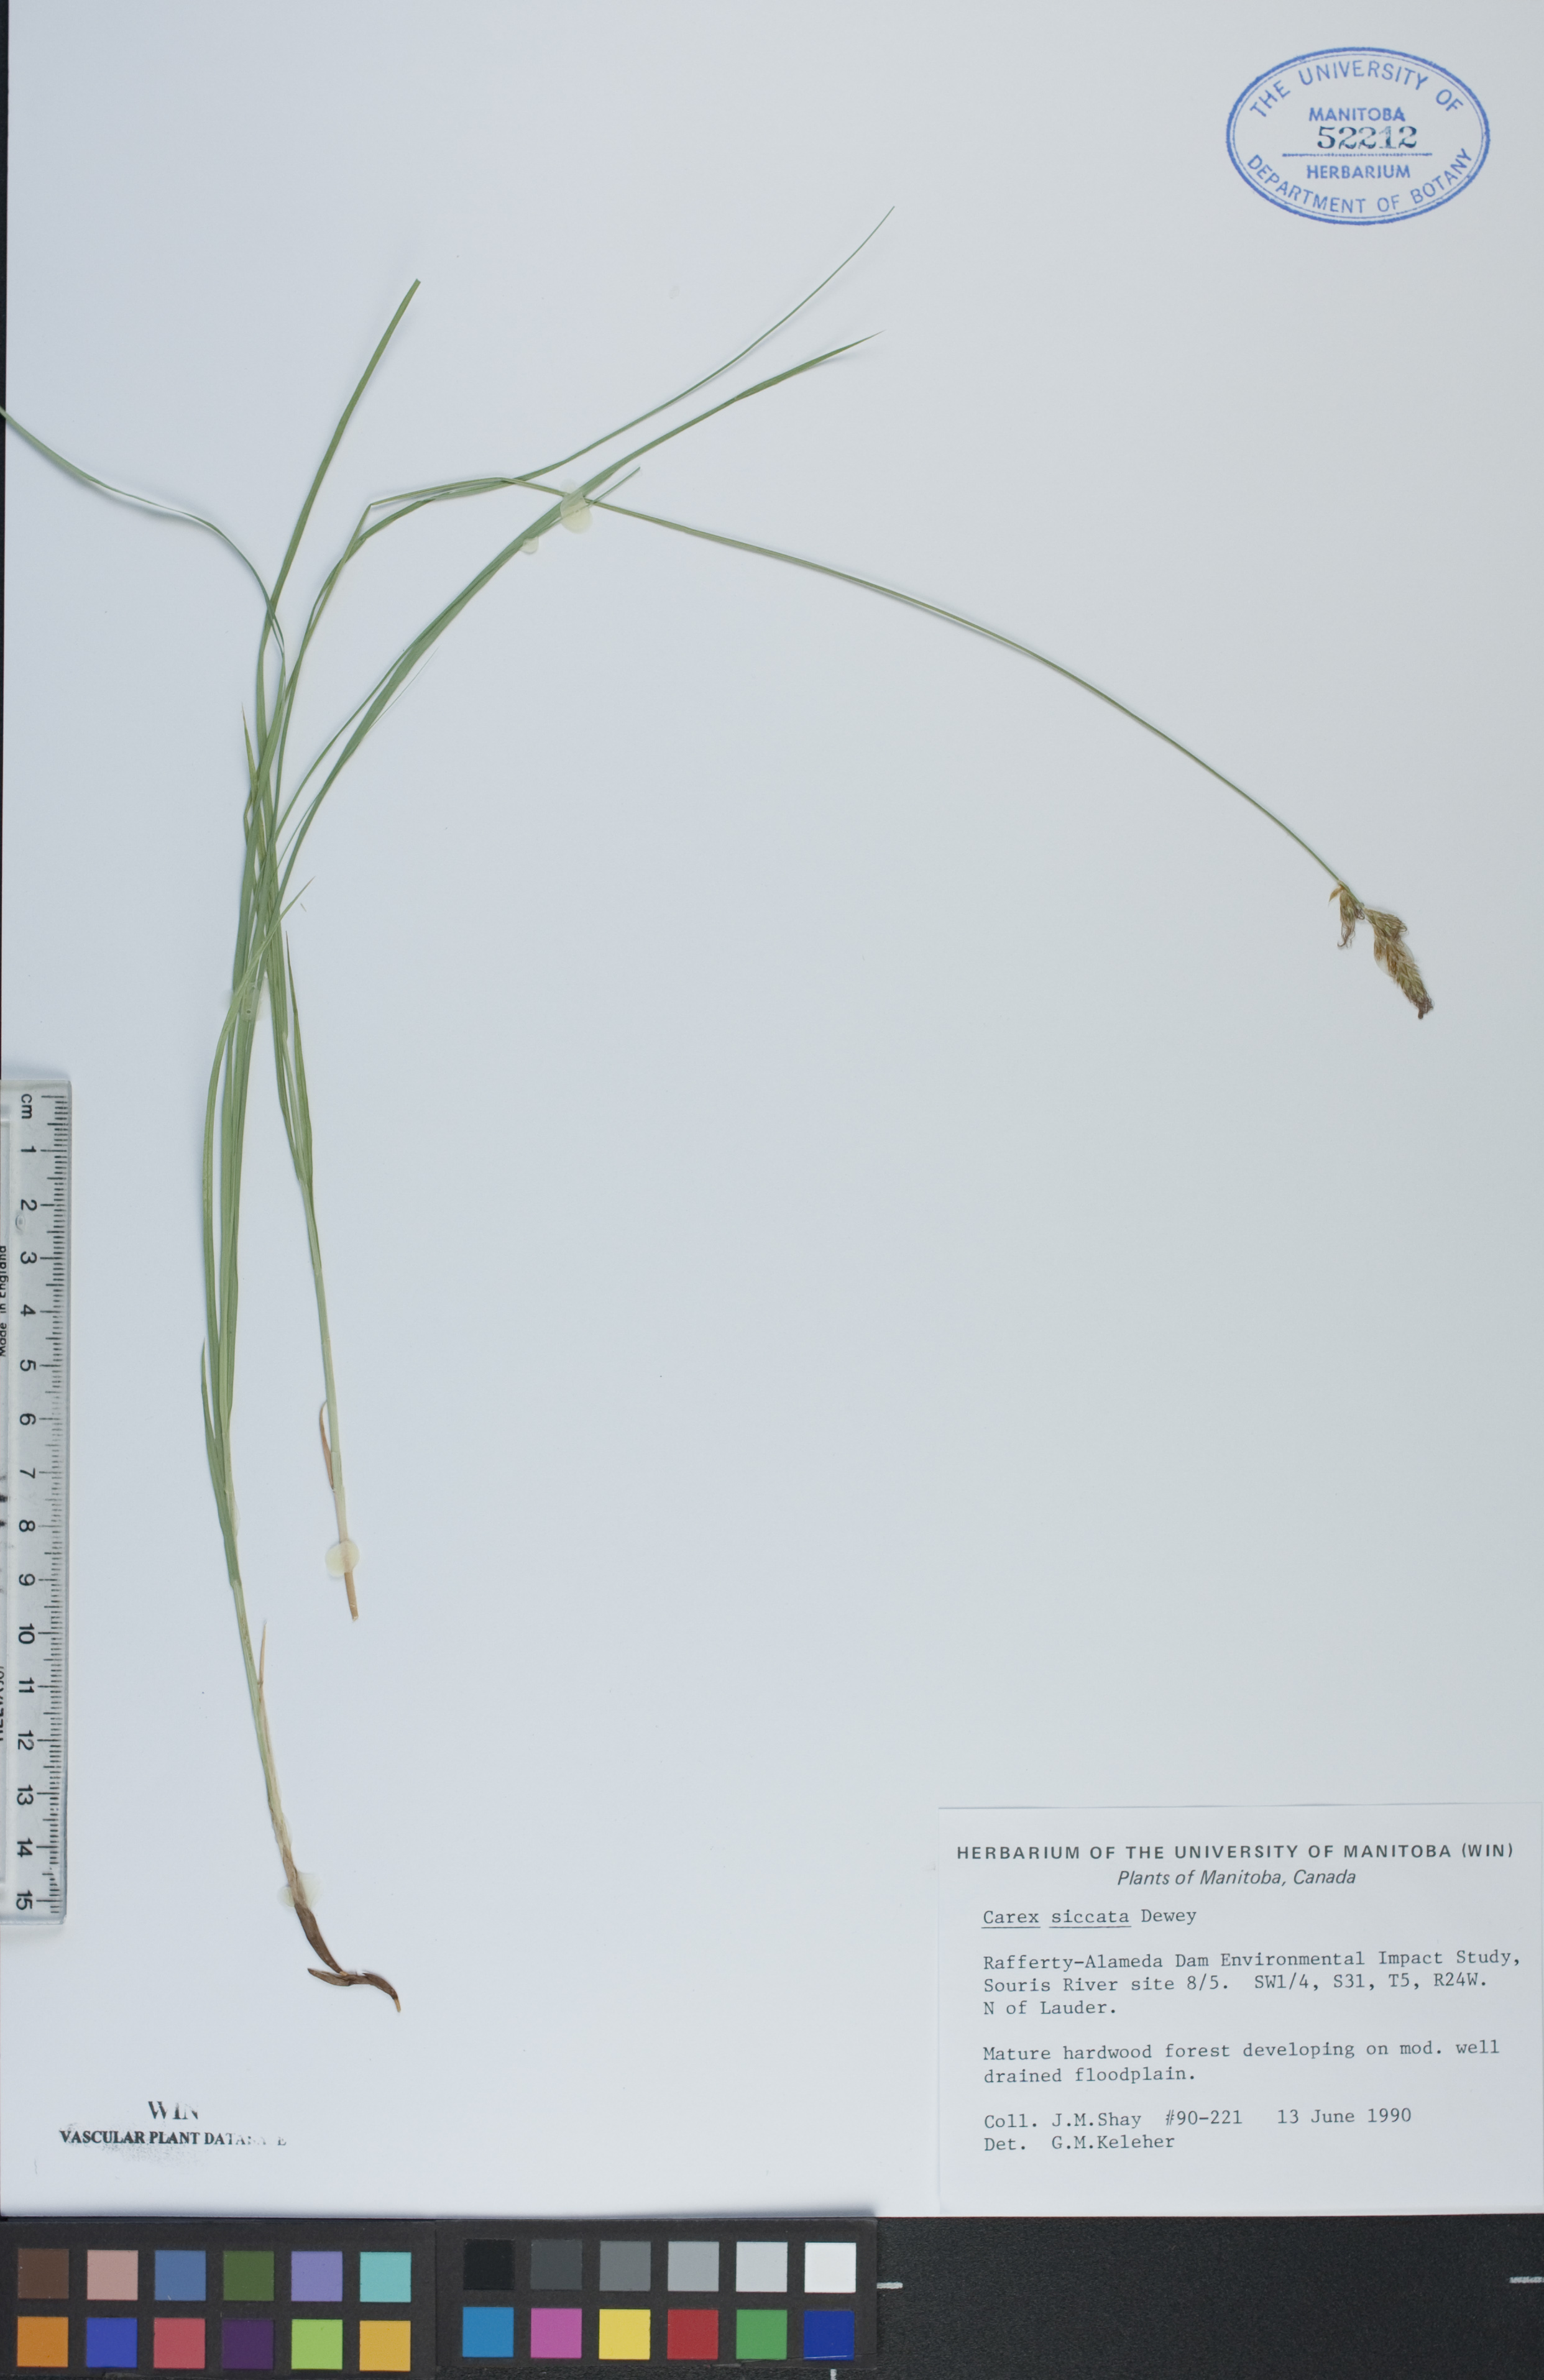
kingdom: Plantae
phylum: Tracheophyta
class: Liliopsida
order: Poales
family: Cyperaceae
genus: Carex
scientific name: Carex siccata
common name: Dry sedge
